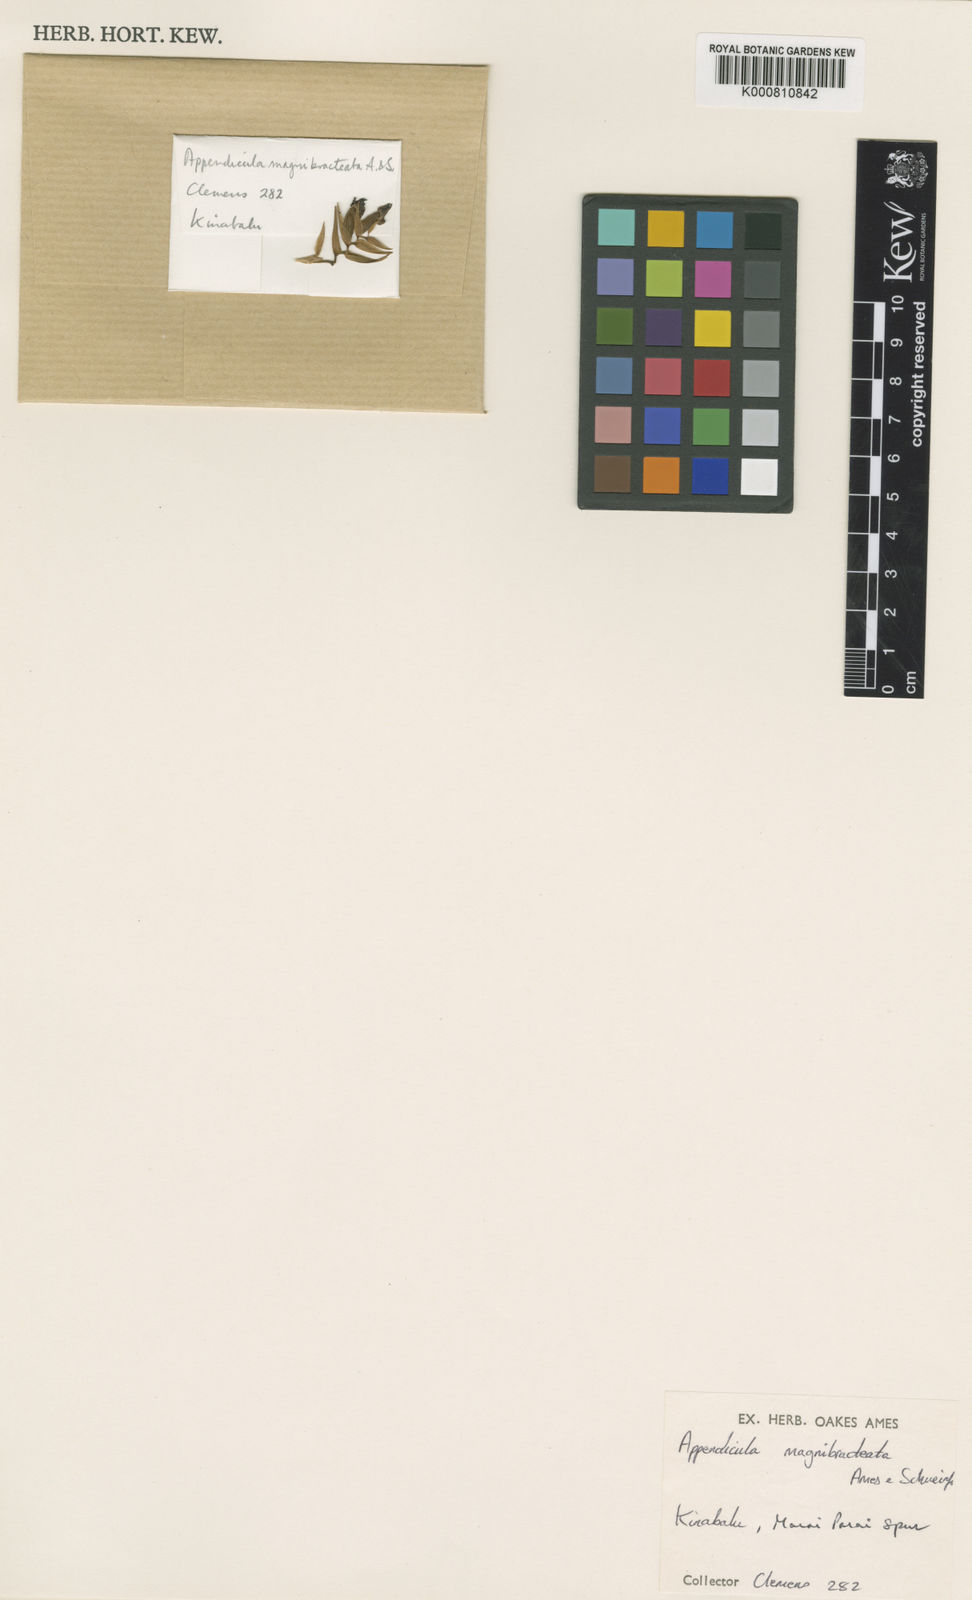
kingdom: Plantae
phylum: Tracheophyta
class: Liliopsida
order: Asparagales
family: Orchidaceae
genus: Appendicula
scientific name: Appendicula magnibracteata
